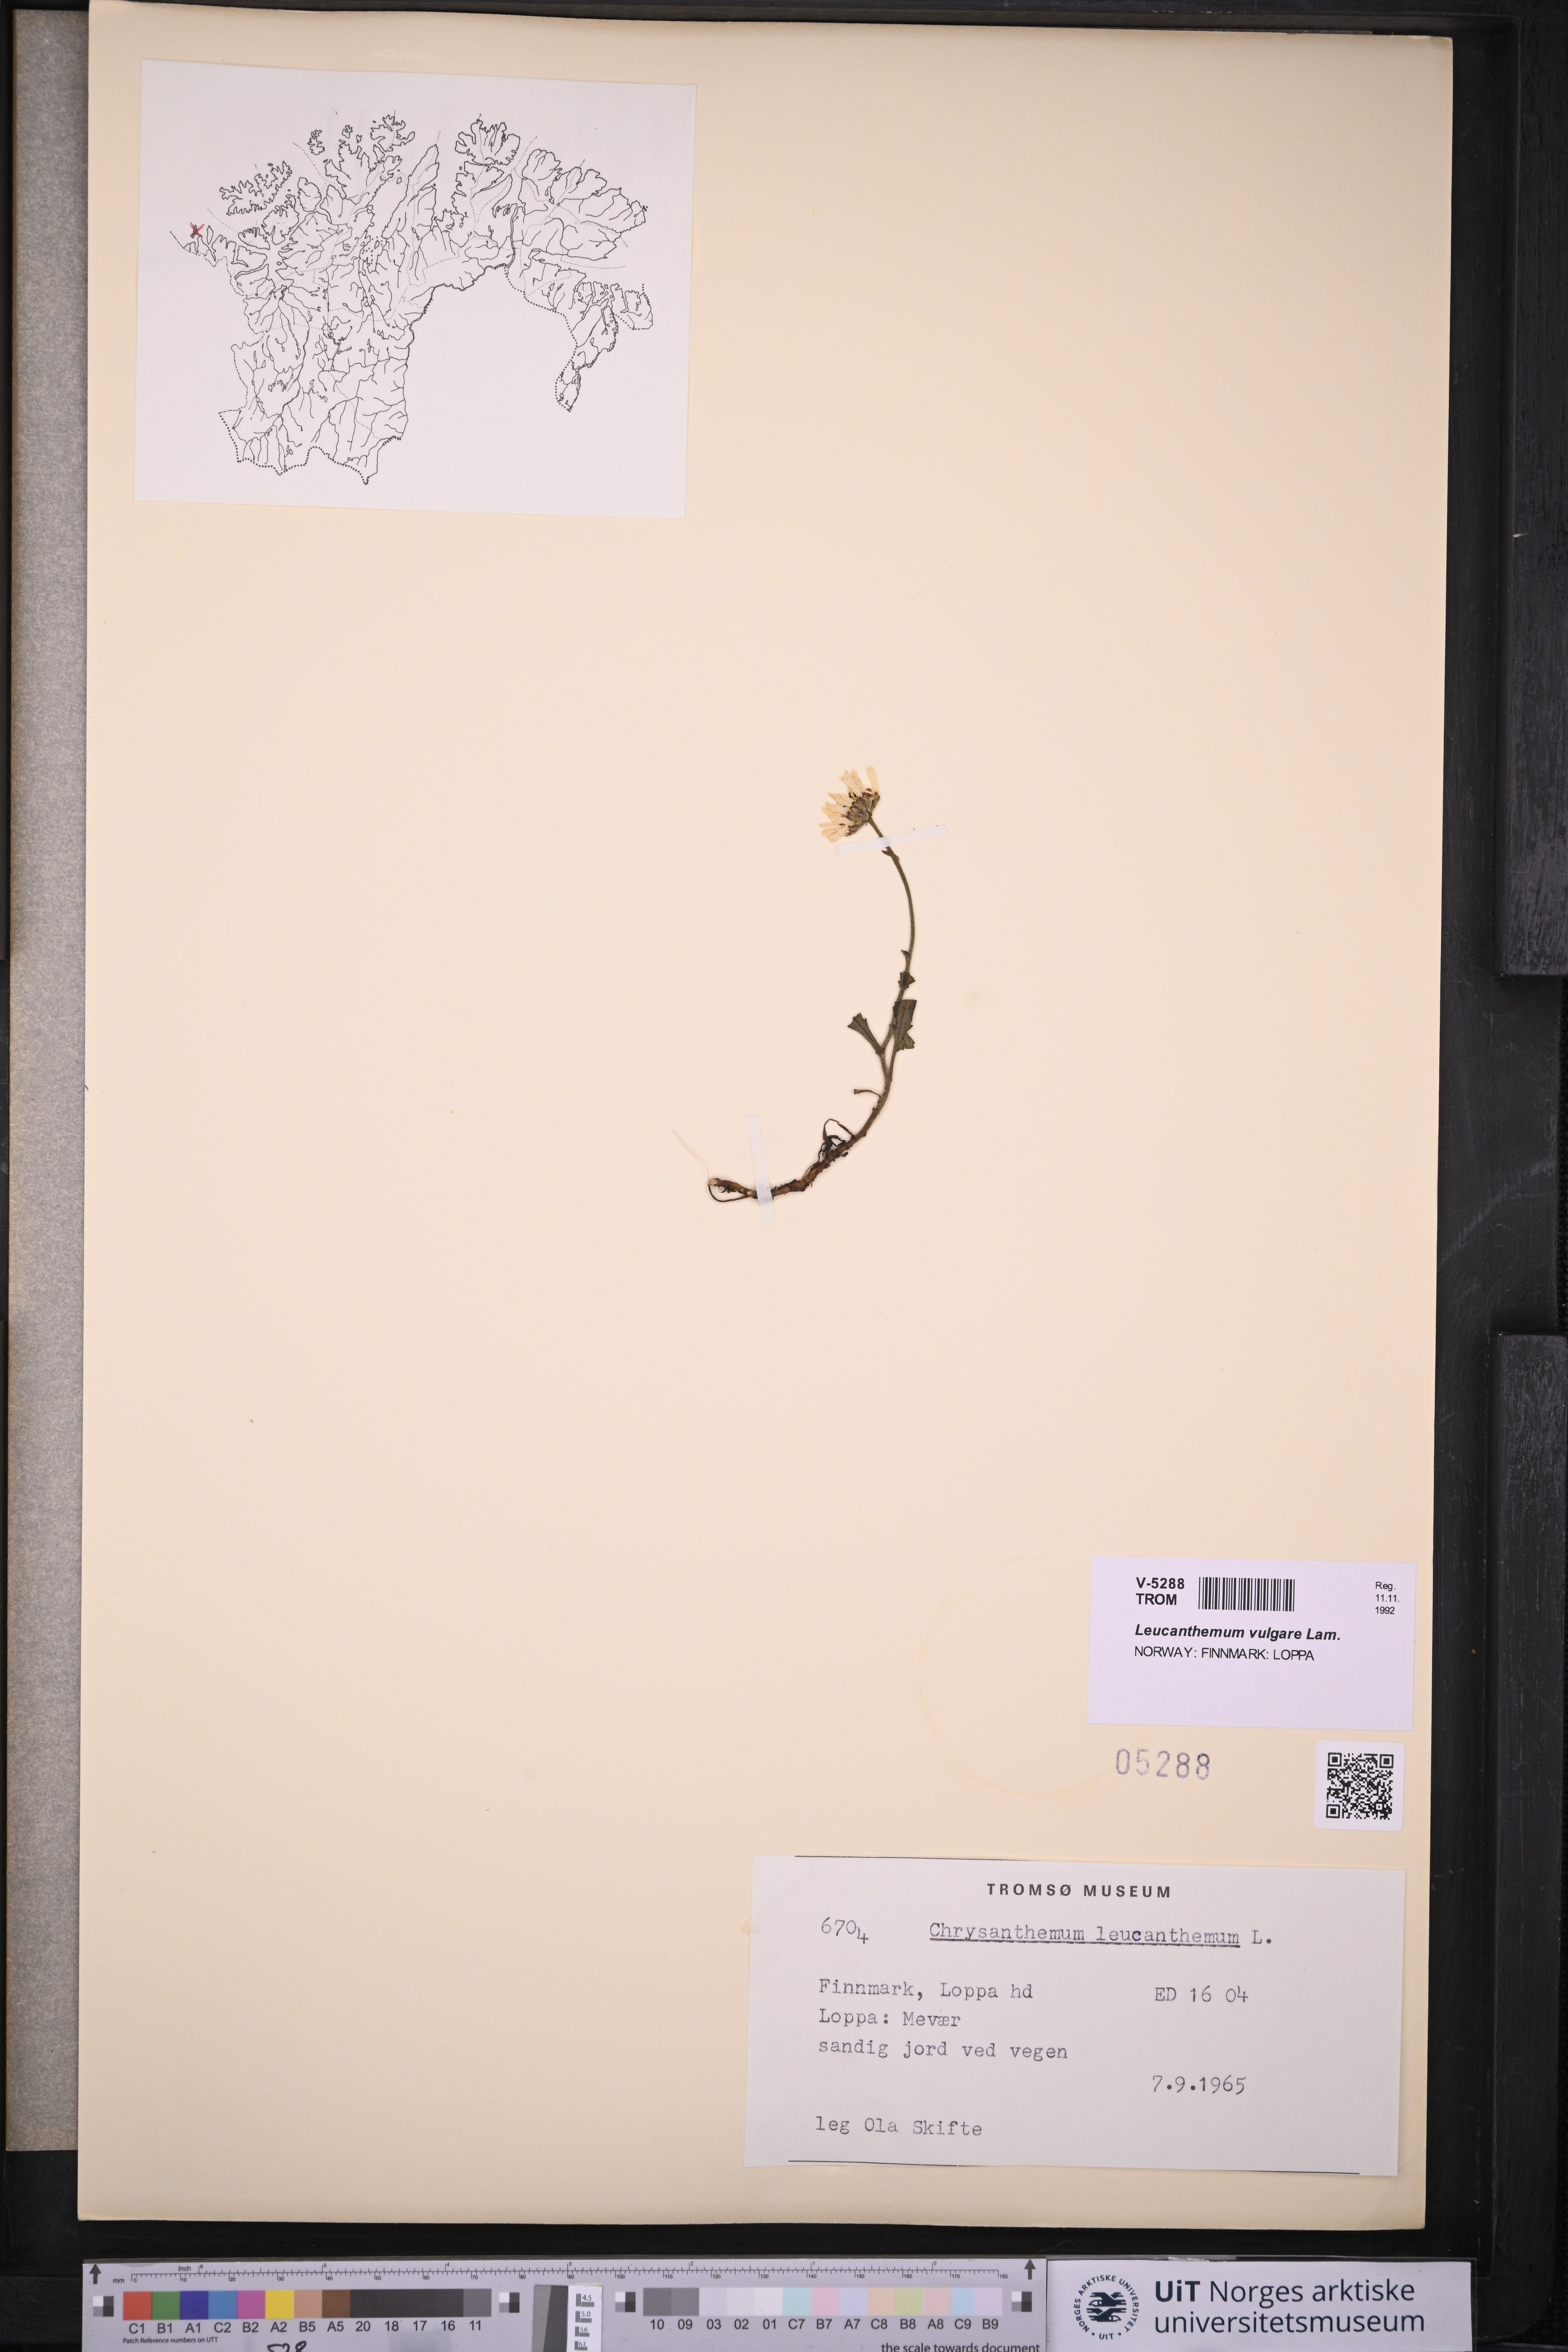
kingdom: Plantae
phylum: Tracheophyta
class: Magnoliopsida
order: Asterales
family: Asteraceae
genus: Leucanthemum
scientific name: Leucanthemum vulgare
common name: Oxeye daisy
